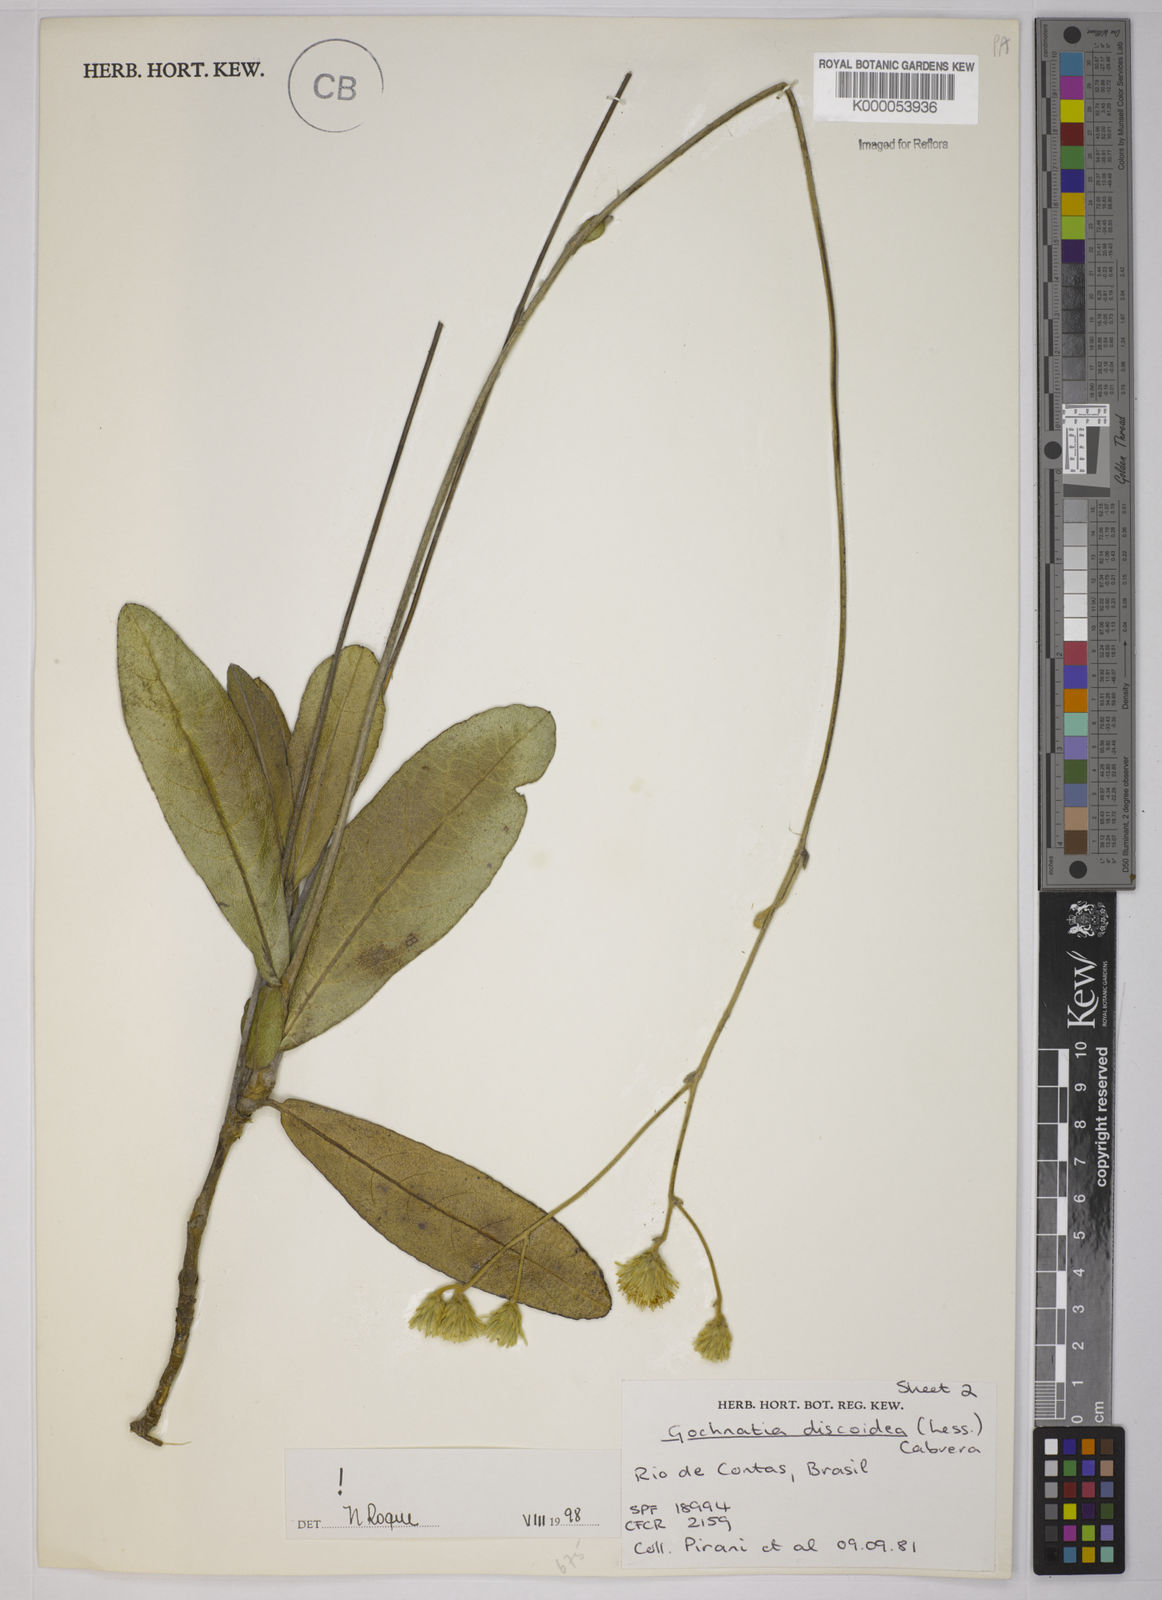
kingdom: Plantae
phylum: Tracheophyta
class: Magnoliopsida
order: Asterales
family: Asteraceae
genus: Richterago
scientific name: Richterago discoidea
